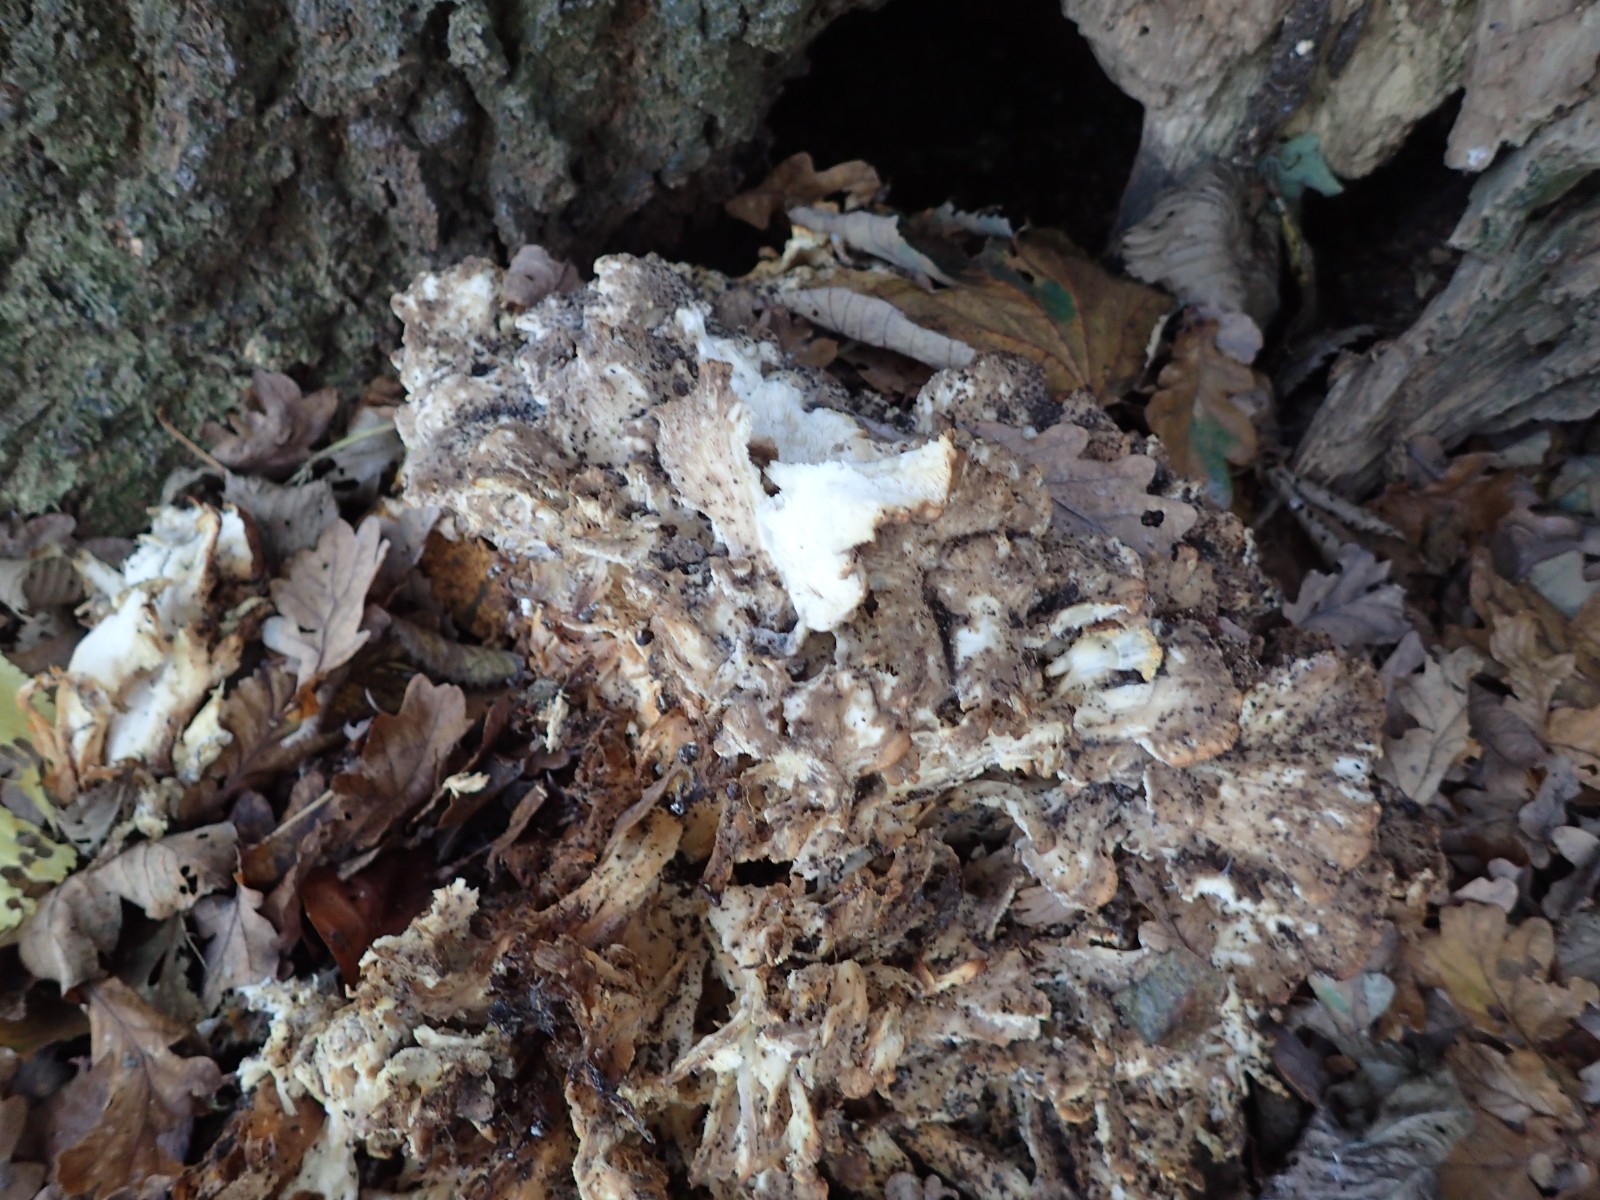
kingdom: Fungi
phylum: Basidiomycota
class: Agaricomycetes
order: Polyporales
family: Grifolaceae
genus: Grifola
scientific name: Grifola frondosa
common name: tueporesvamp
